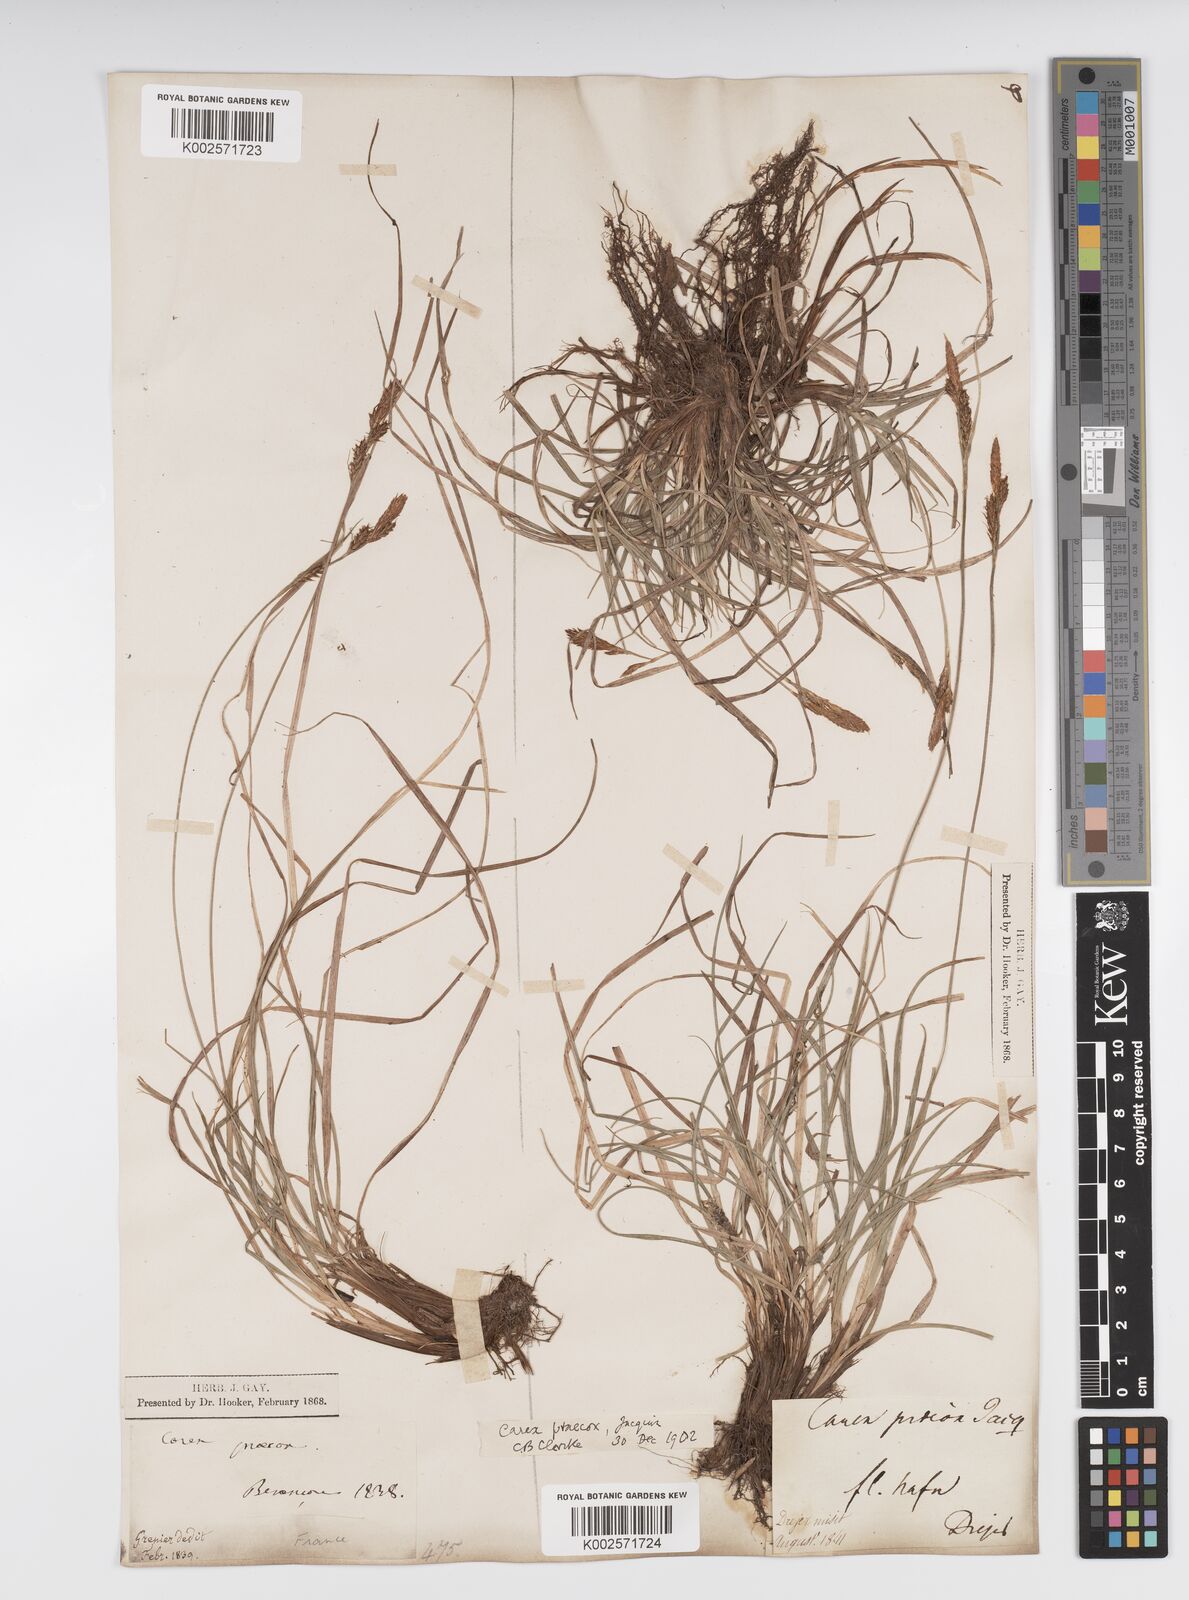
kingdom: Plantae
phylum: Tracheophyta
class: Liliopsida
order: Poales
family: Cyperaceae
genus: Carex
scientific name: Carex caryophyllea
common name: Spring sedge
